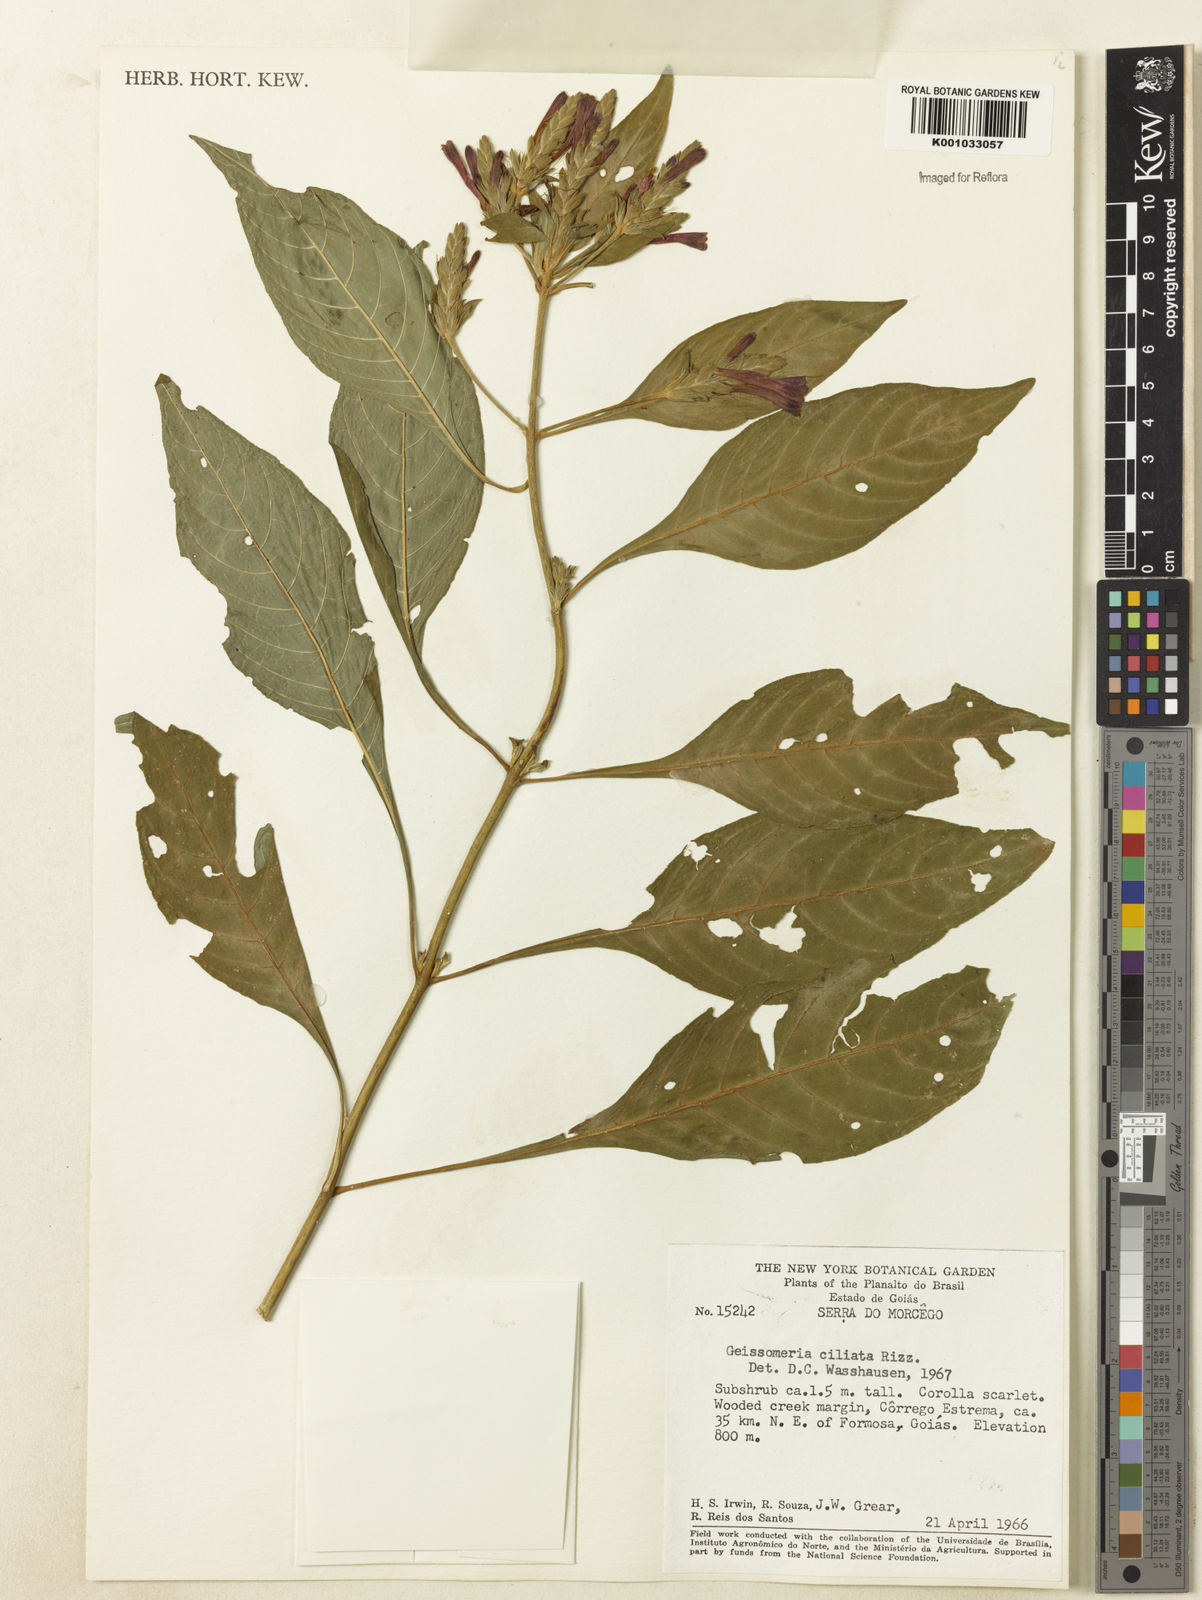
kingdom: Plantae
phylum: Tracheophyta
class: Magnoliopsida
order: Lamiales
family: Acanthaceae
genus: Aphelandra
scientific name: Aphelandra longiflora
